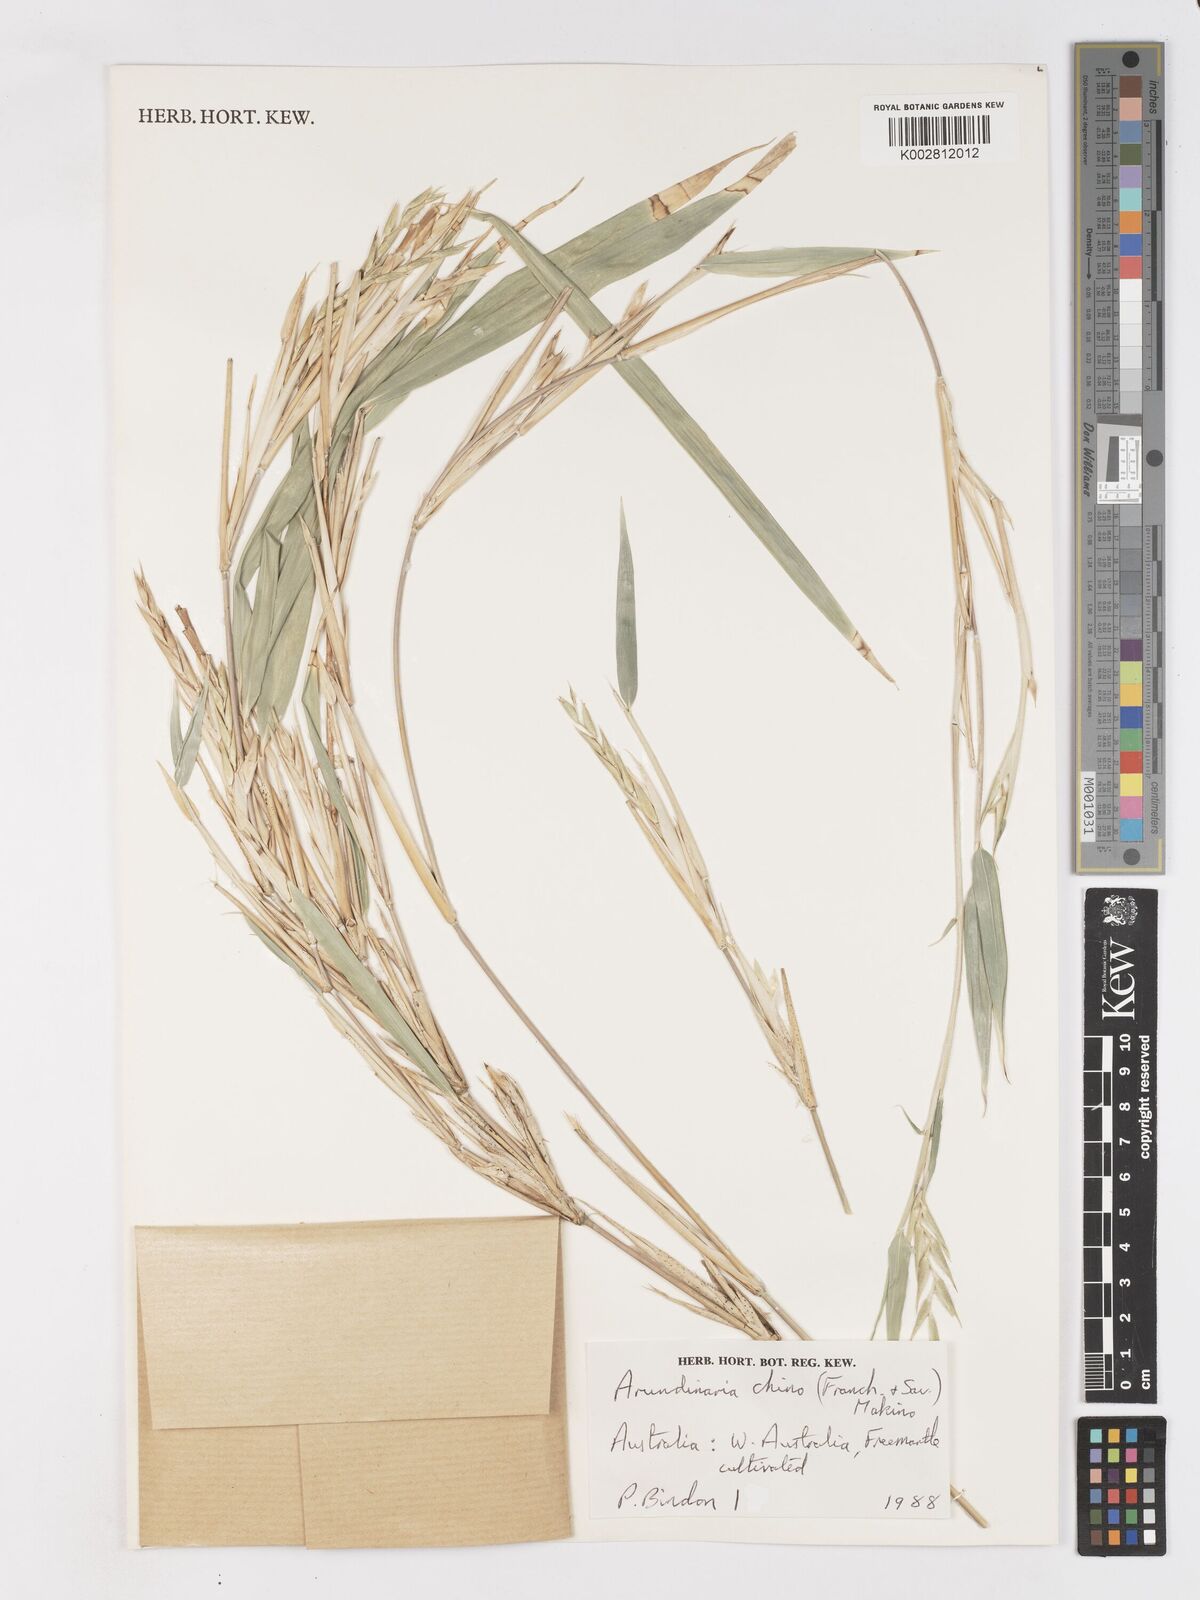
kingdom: Plantae
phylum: Tracheophyta
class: Liliopsida
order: Poales
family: Poaceae
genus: Pleioblastus
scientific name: Pleioblastus argenteostriatus
